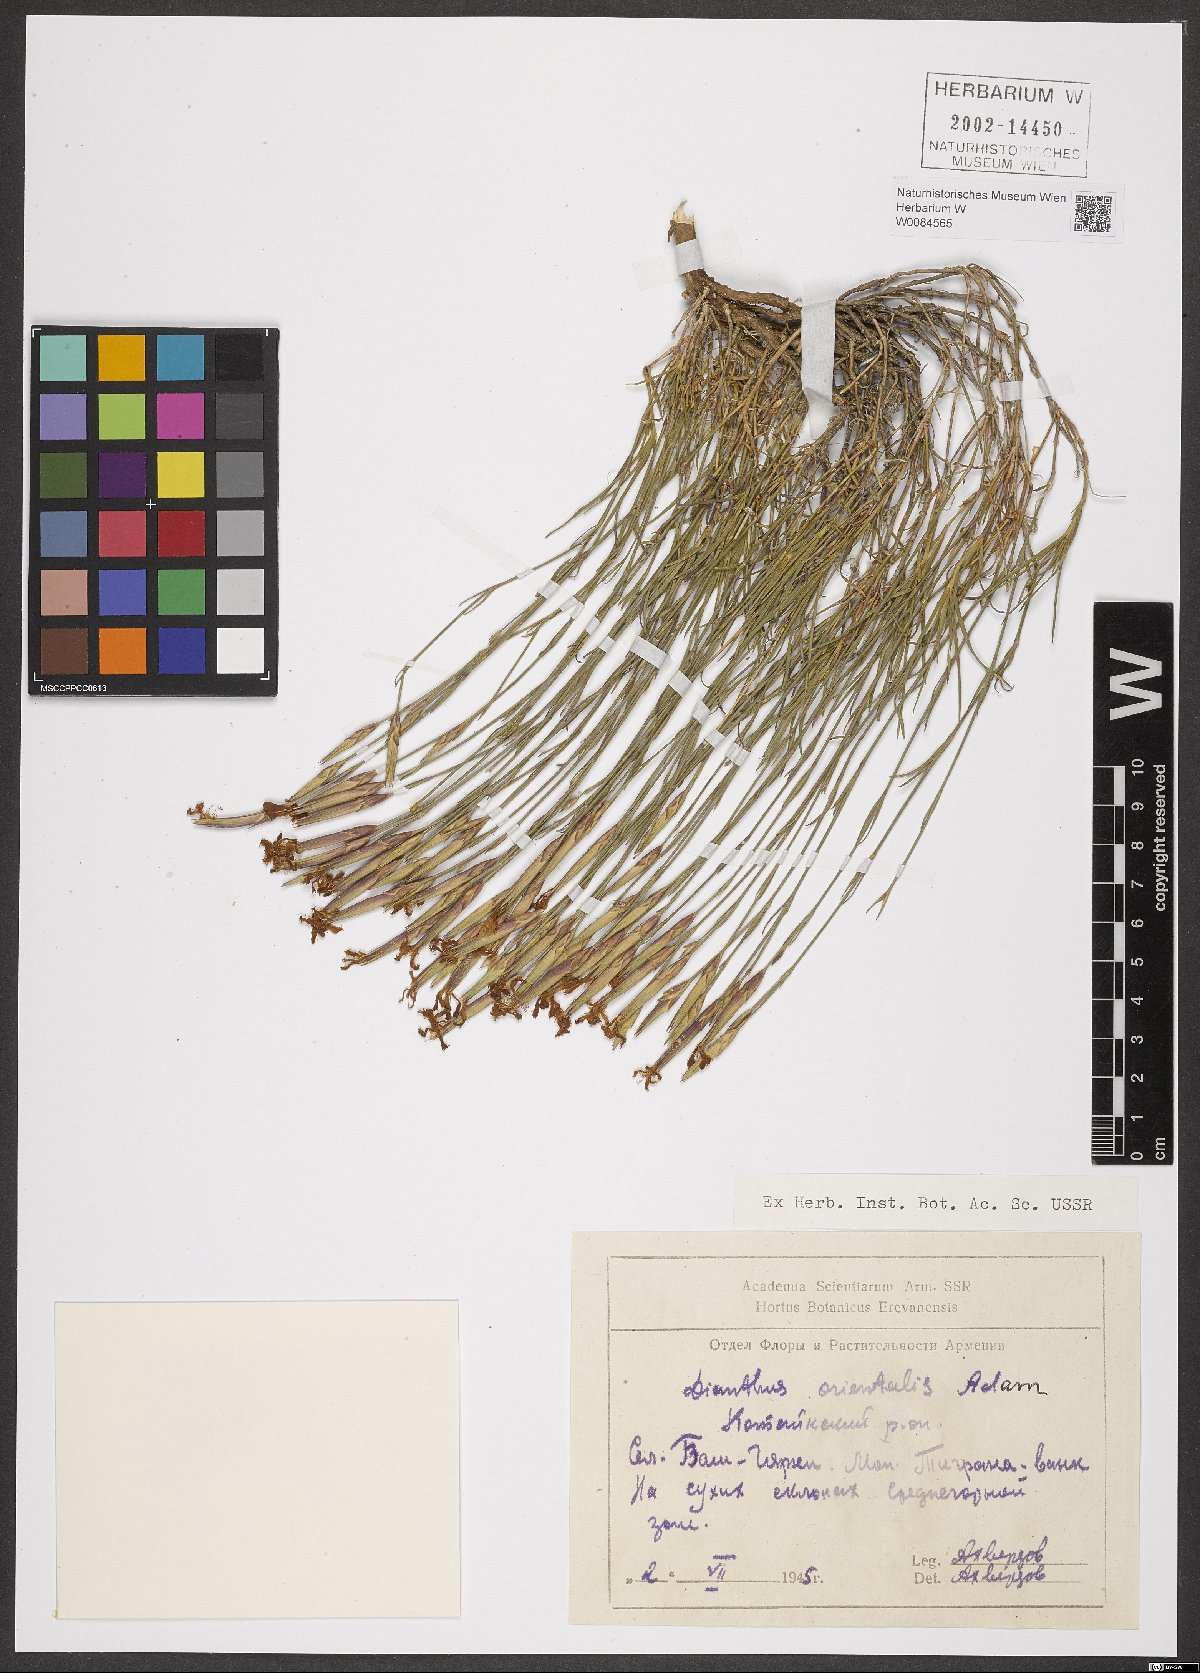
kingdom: Plantae
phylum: Tracheophyta
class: Magnoliopsida
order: Caryophyllales
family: Caryophyllaceae
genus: Dianthus
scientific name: Dianthus orientalis
